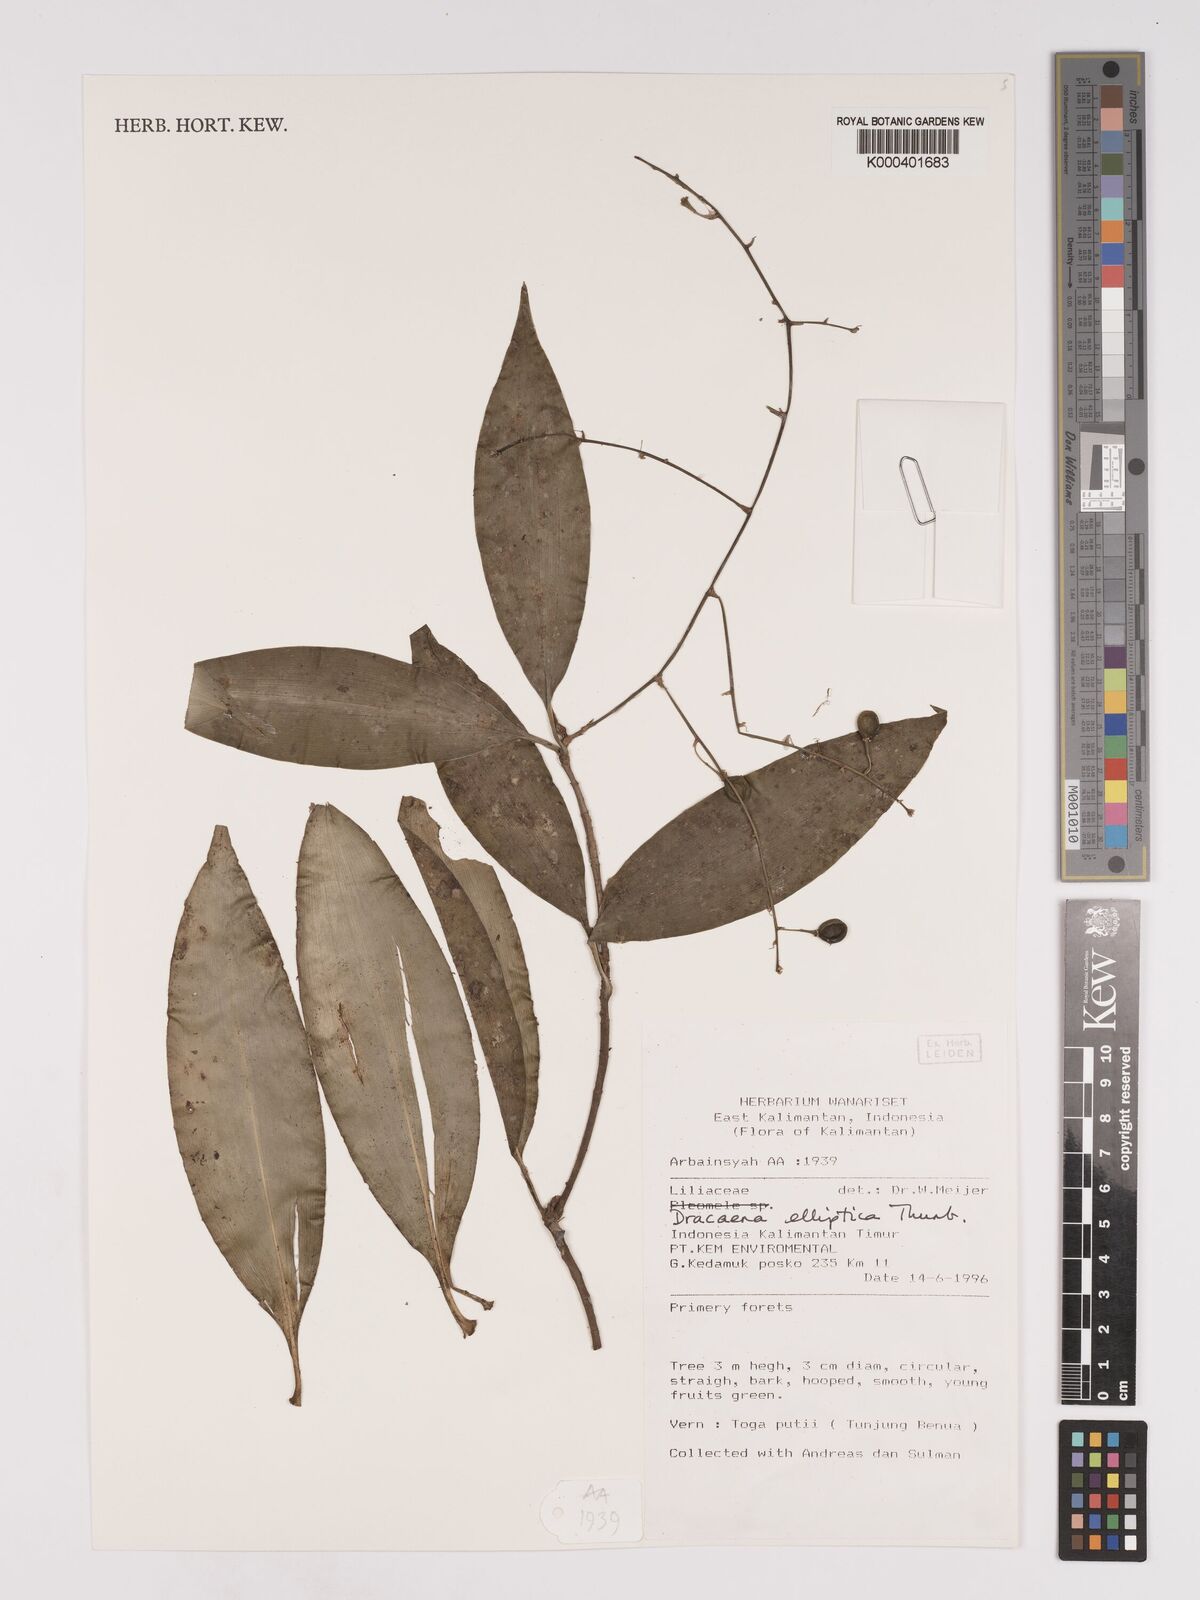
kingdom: Plantae
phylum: Tracheophyta
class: Liliopsida
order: Asparagales
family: Asparagaceae
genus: Dracaena
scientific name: Dracaena elliptica
